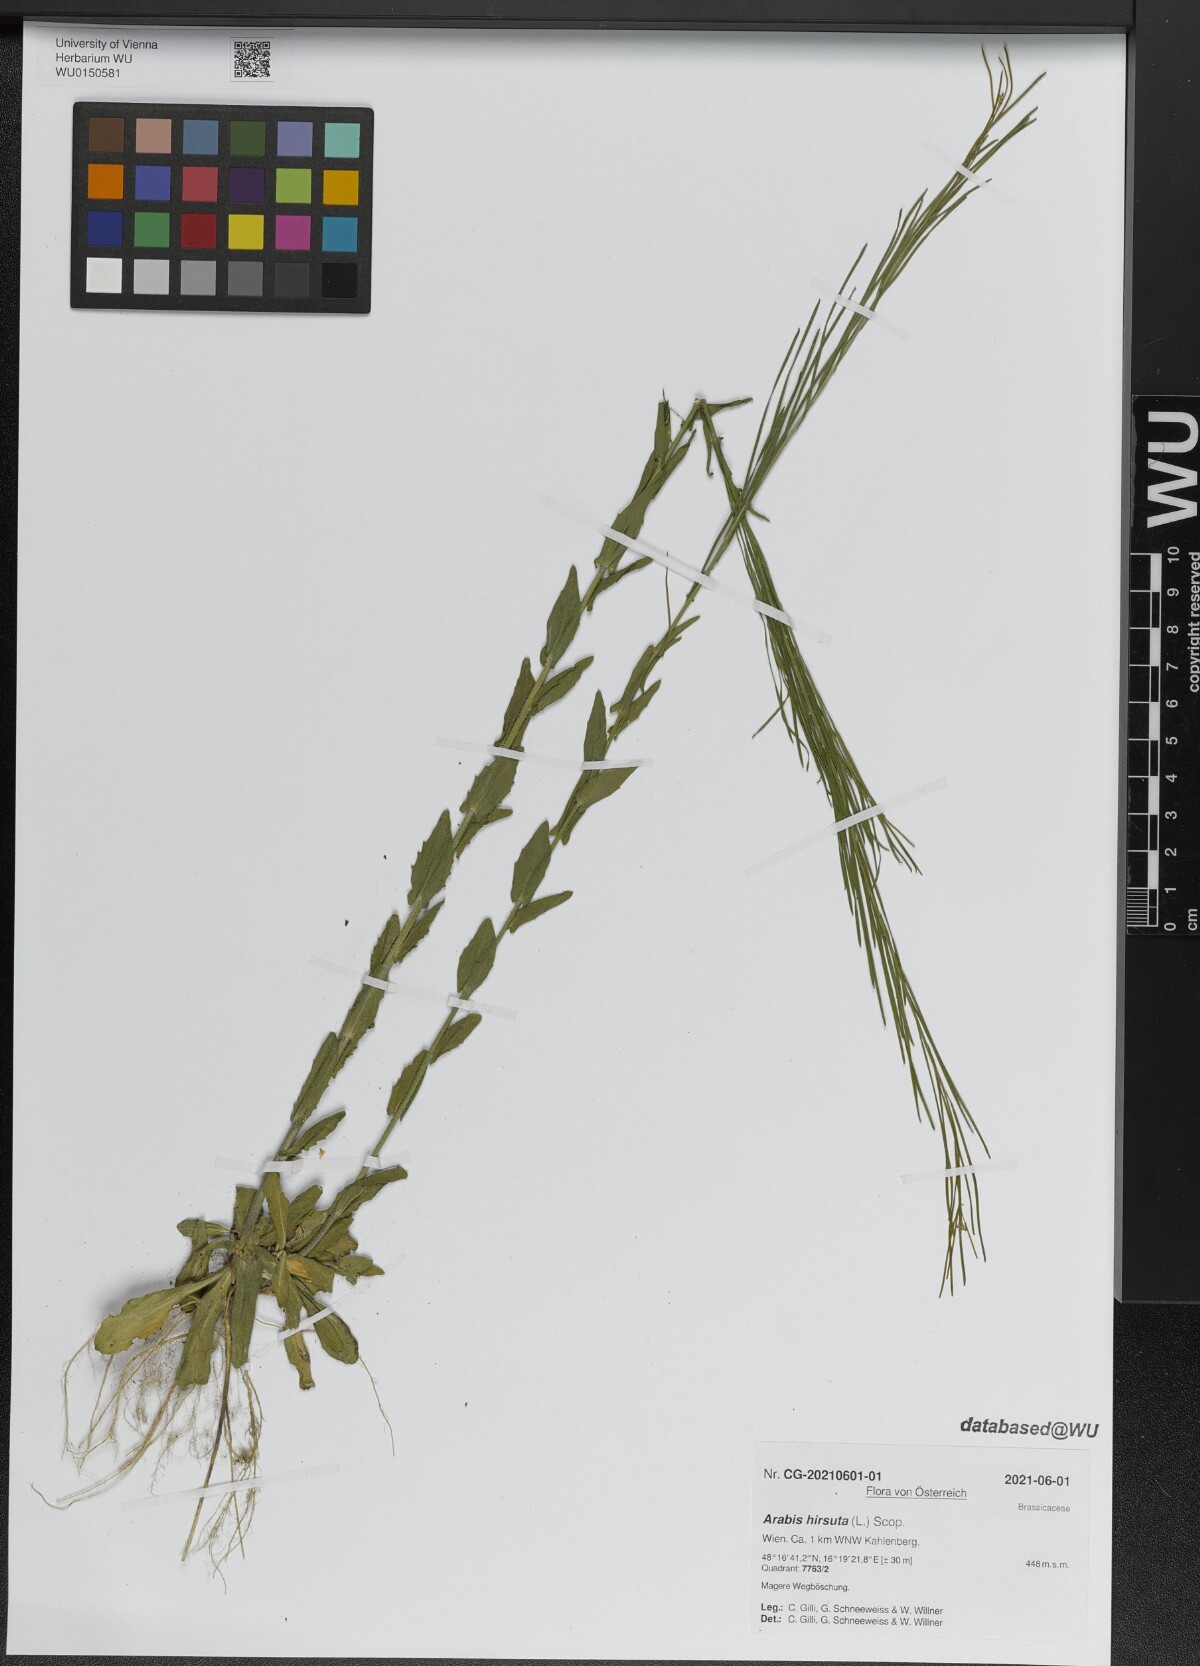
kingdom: Plantae
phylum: Tracheophyta
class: Magnoliopsida
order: Brassicales
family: Brassicaceae
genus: Arabis
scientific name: Arabis hirsuta
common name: Hairy rock-cress
